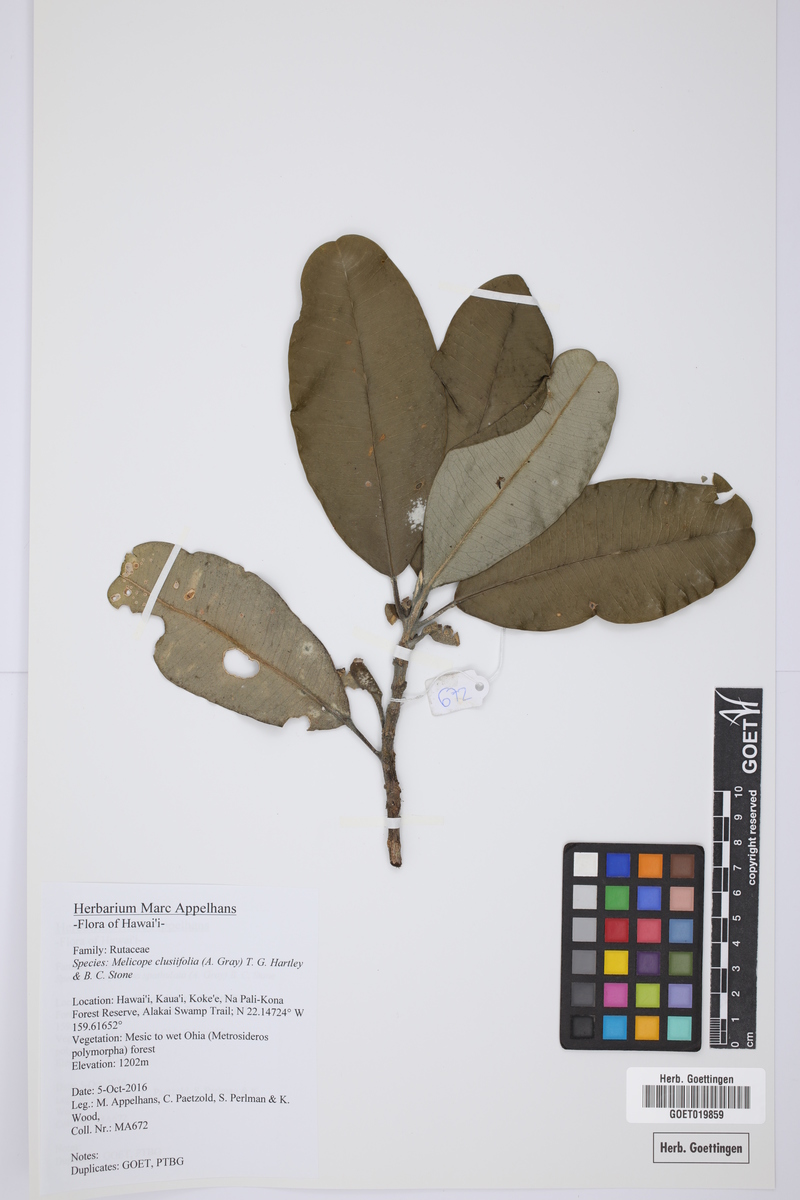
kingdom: Plantae
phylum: Tracheophyta
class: Magnoliopsida
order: Sapindales
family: Rutaceae
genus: Melicope
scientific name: Melicope clusiifolia
